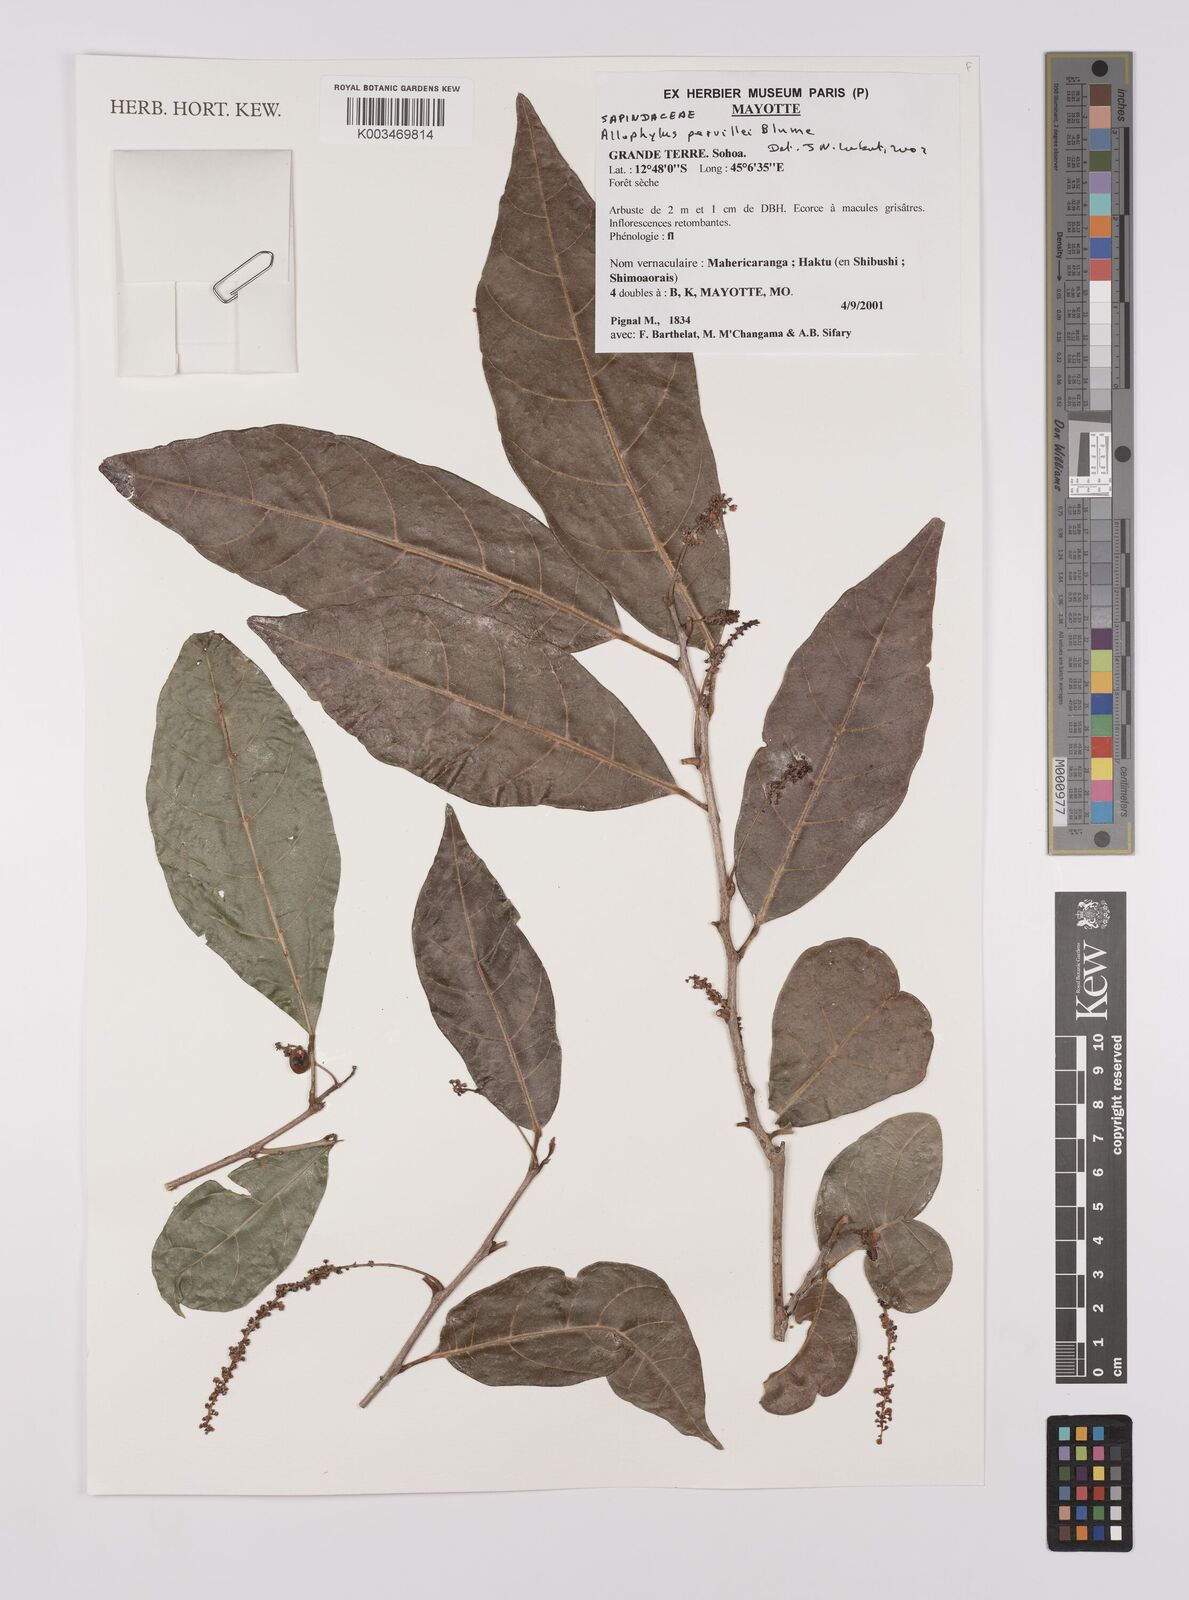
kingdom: Plantae
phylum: Tracheophyta
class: Magnoliopsida
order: Sapindales
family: Sapindaceae
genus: Allophylus
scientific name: Allophylus pervillei
